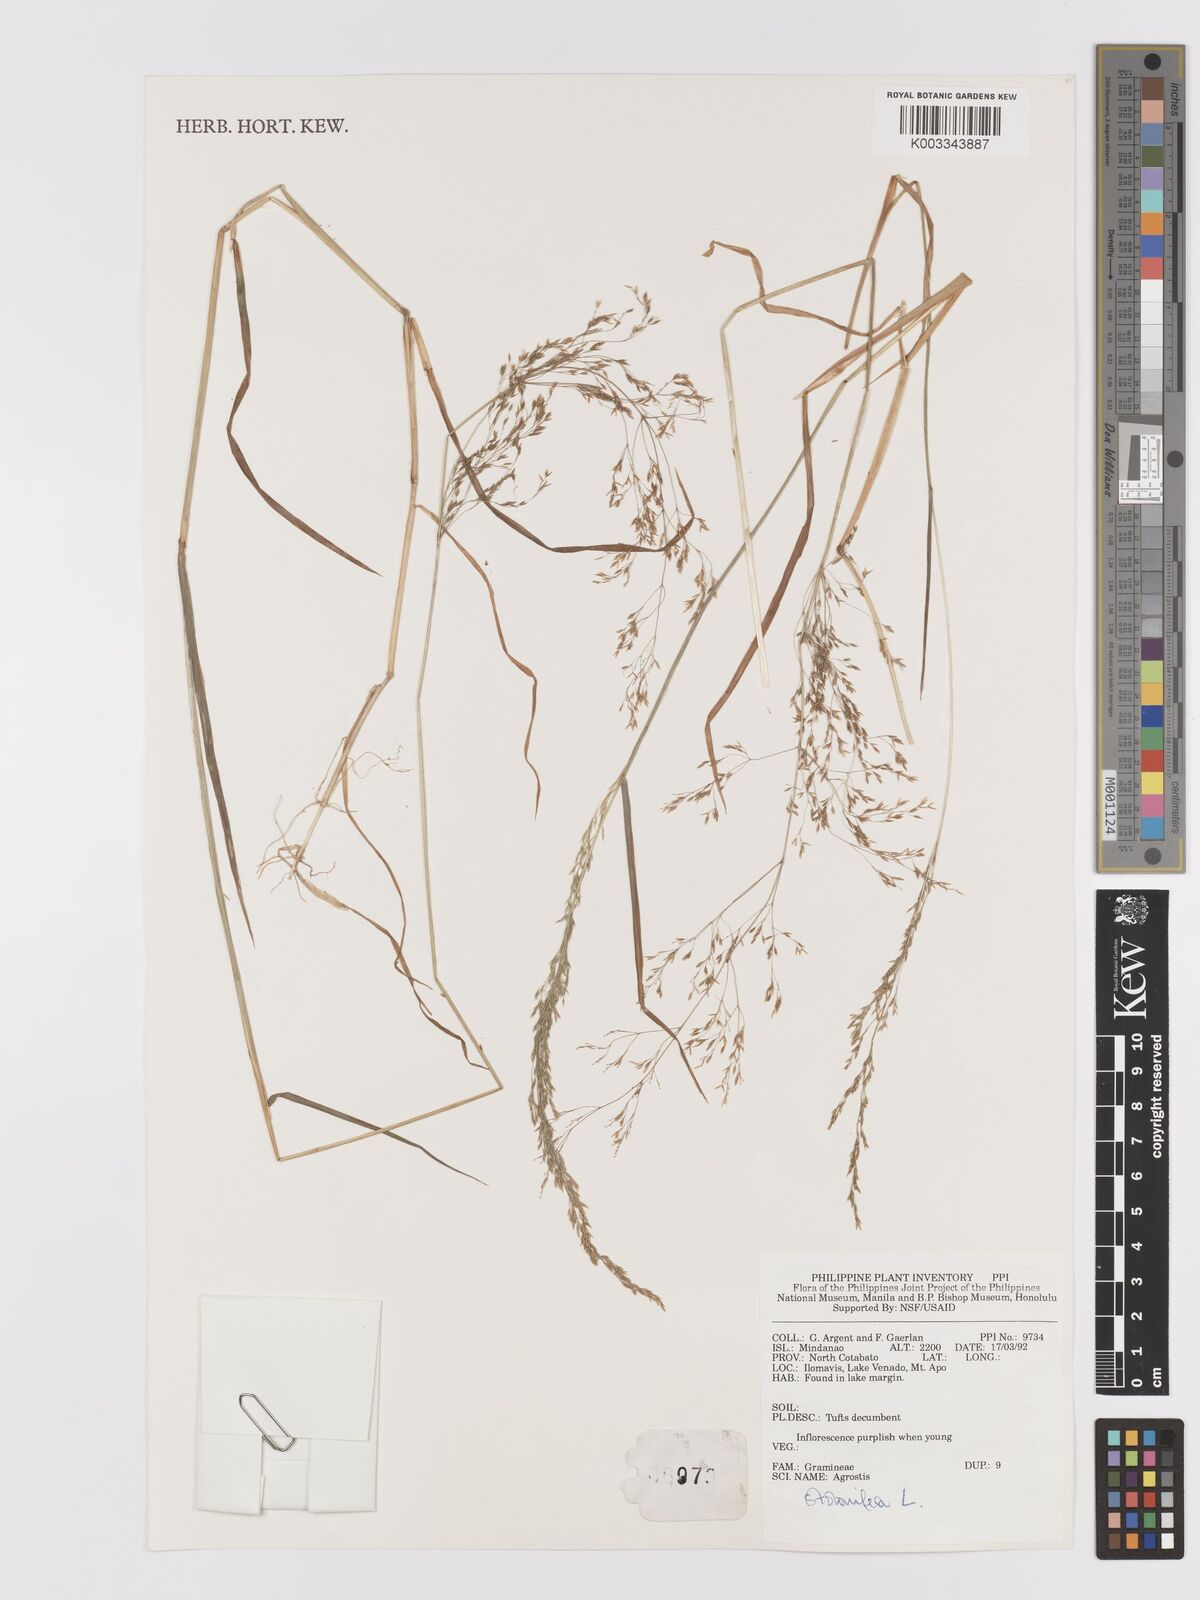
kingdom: Plantae
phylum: Tracheophyta
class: Liliopsida
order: Poales
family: Poaceae
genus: Agrostis
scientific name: Agrostis stolonifera
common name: Creeping bentgrass
